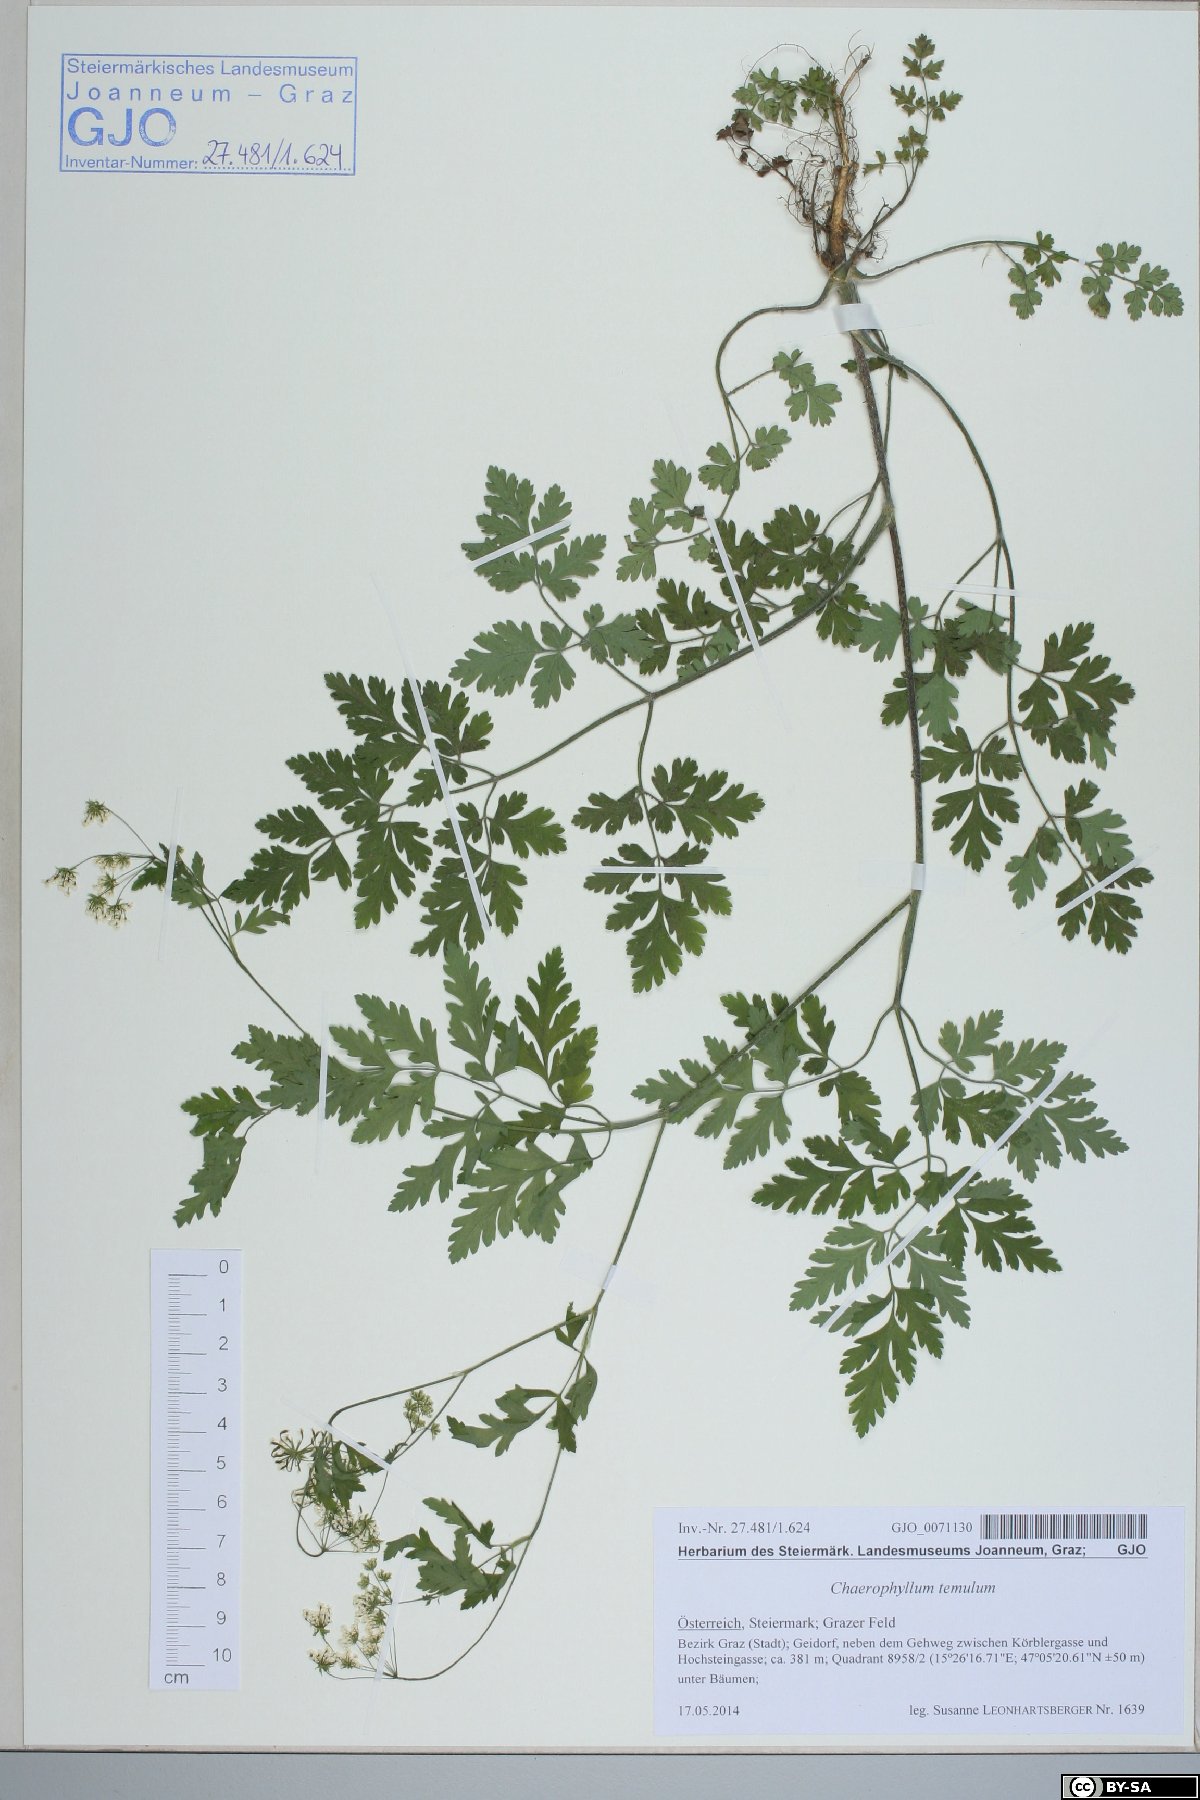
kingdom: Plantae
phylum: Tracheophyta
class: Magnoliopsida
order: Apiales
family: Apiaceae
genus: Chaerophyllum
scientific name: Chaerophyllum temulum
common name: Rough chervil
